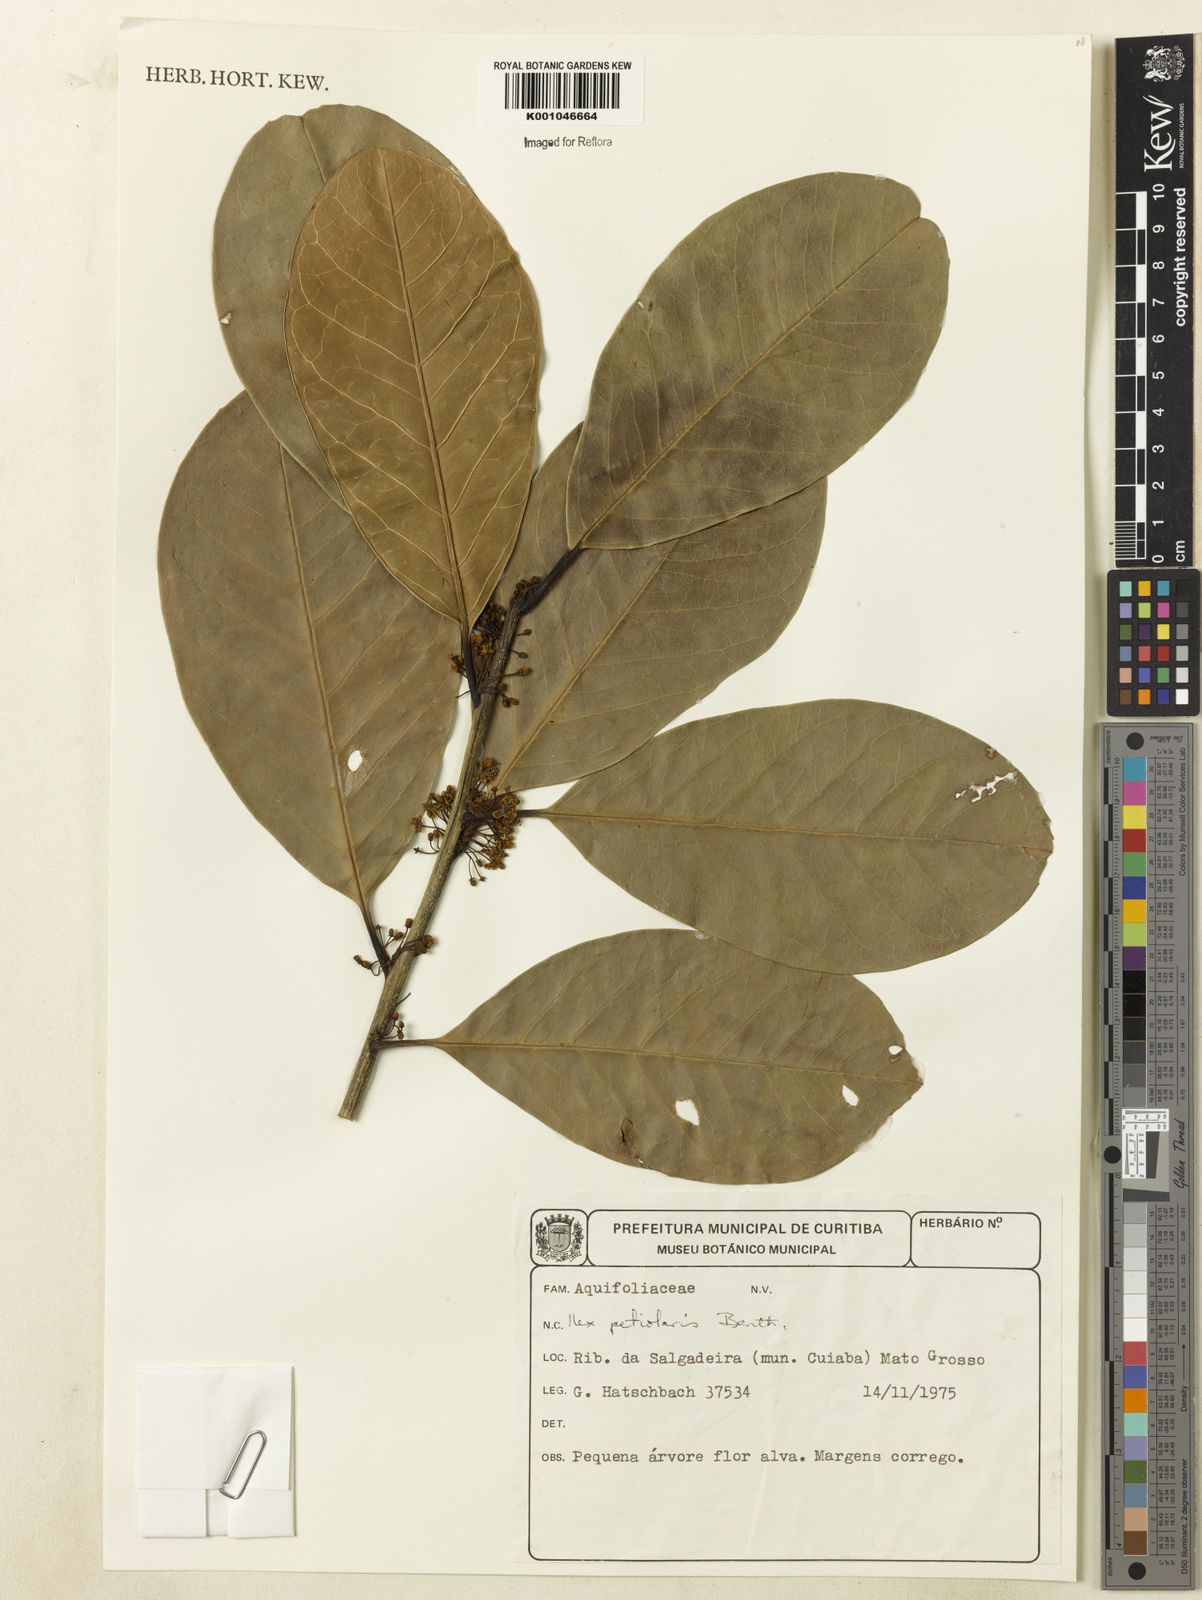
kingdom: Plantae
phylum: Tracheophyta
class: Magnoliopsida
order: Aquifoliales
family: Aquifoliaceae
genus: Ilex
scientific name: Ilex lundii
